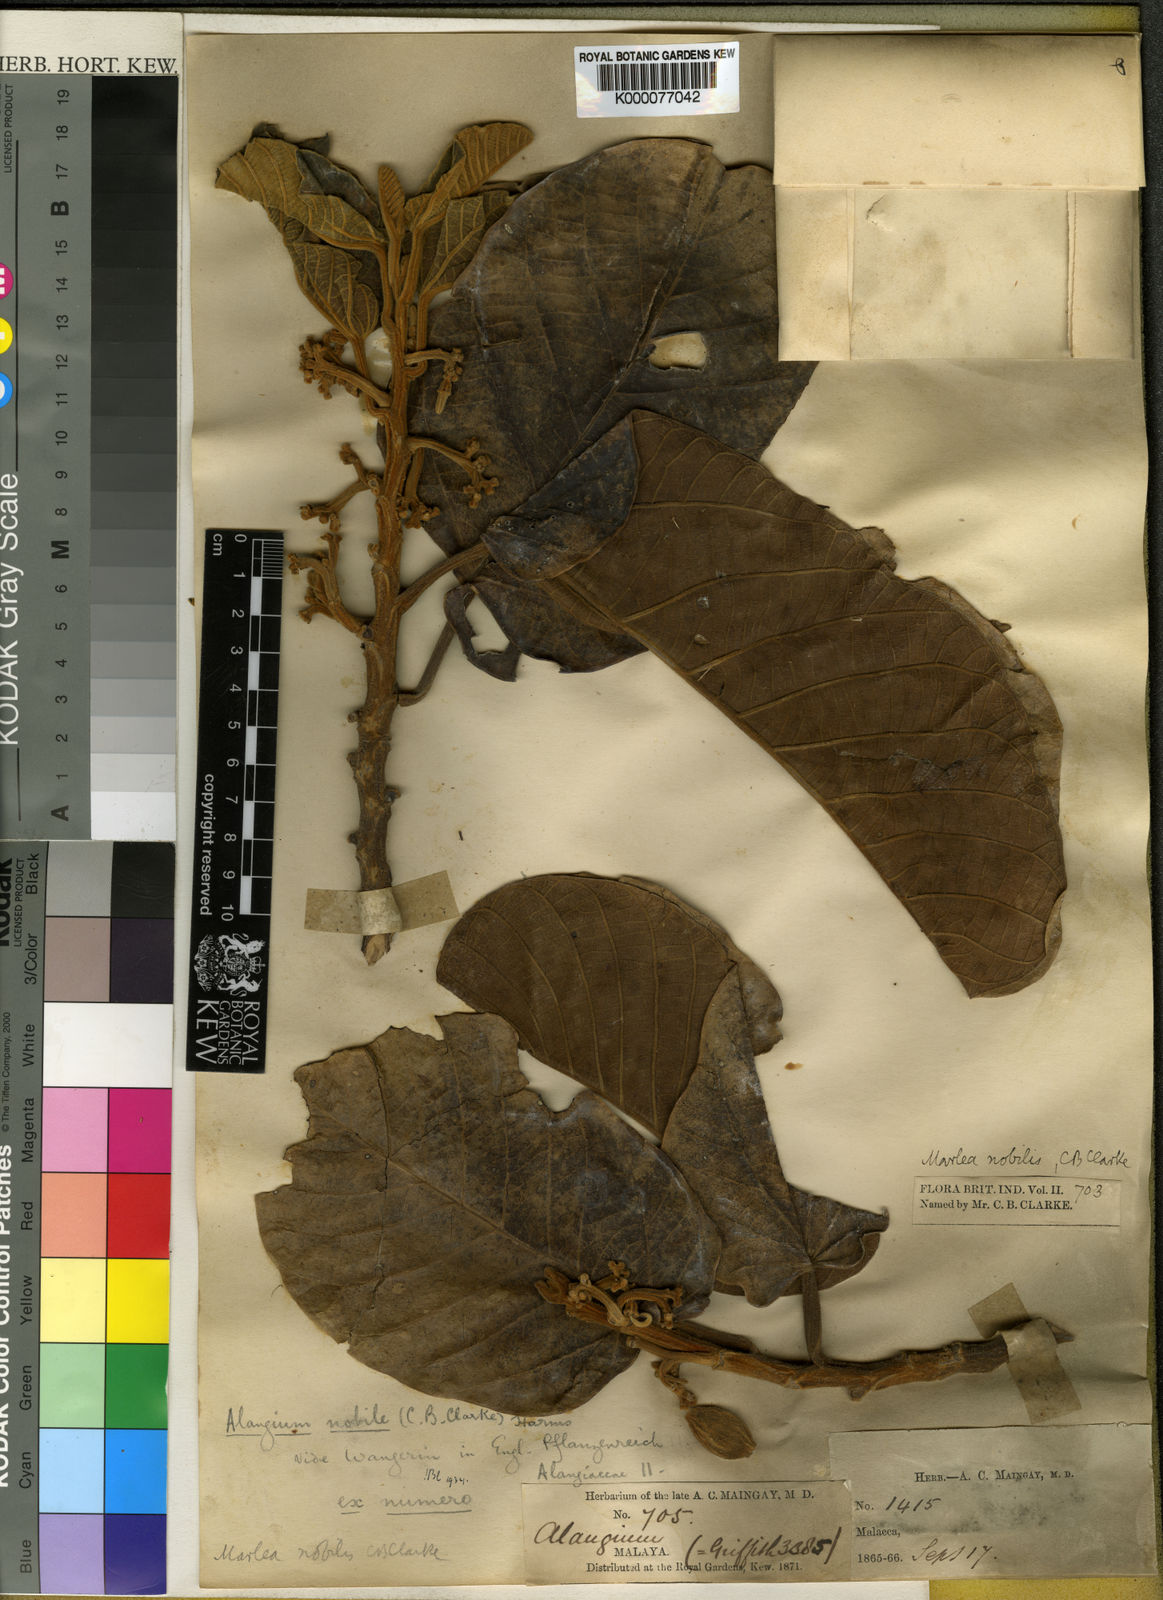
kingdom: Plantae
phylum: Tracheophyta
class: Magnoliopsida
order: Cornales
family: Cornaceae
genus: Alangium
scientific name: Alangium nobile
